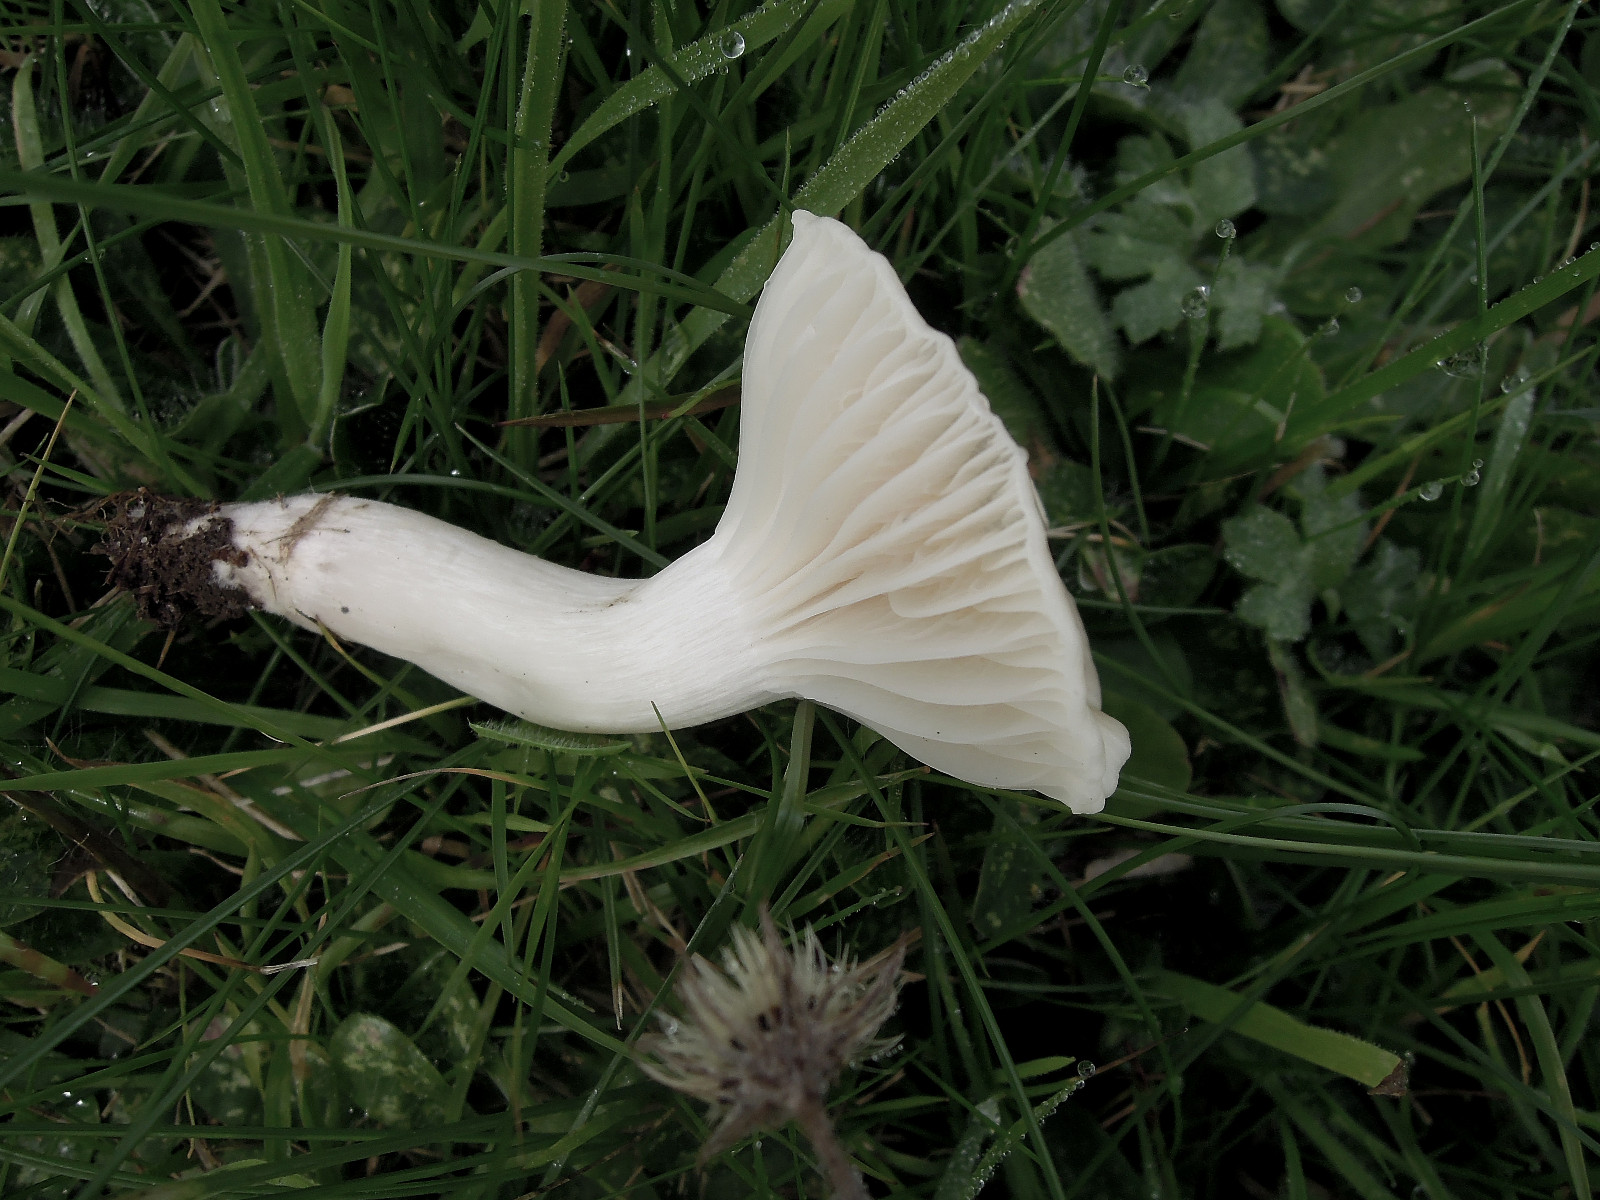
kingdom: Fungi
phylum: Basidiomycota
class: Agaricomycetes
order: Agaricales
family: Hygrophoraceae
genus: Cuphophyllus
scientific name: Cuphophyllus russocoriaceus
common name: ruslæder-vokshat
